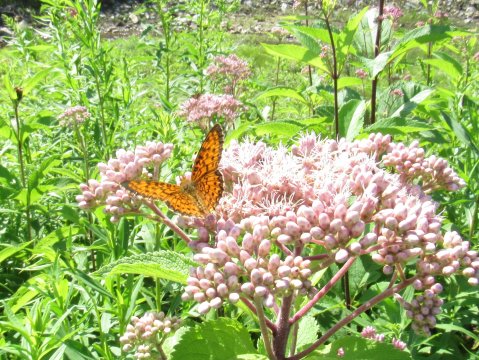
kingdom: Animalia
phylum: Arthropoda
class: Insecta
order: Lepidoptera
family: Nymphalidae
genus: Boloria
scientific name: Boloria selene
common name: Silver-bordered Fritillary
